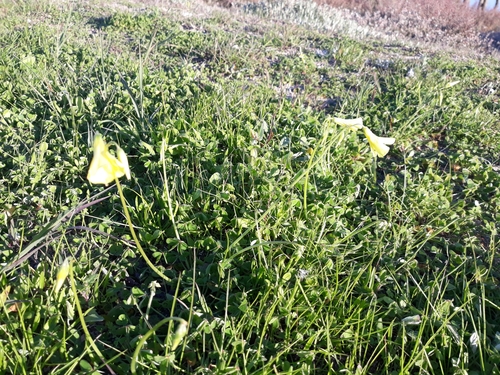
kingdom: Plantae
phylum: Tracheophyta
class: Magnoliopsida
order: Oxalidales
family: Oxalidaceae
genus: Oxalis
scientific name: Oxalis pes-caprae
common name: Bermuda-buttercup
